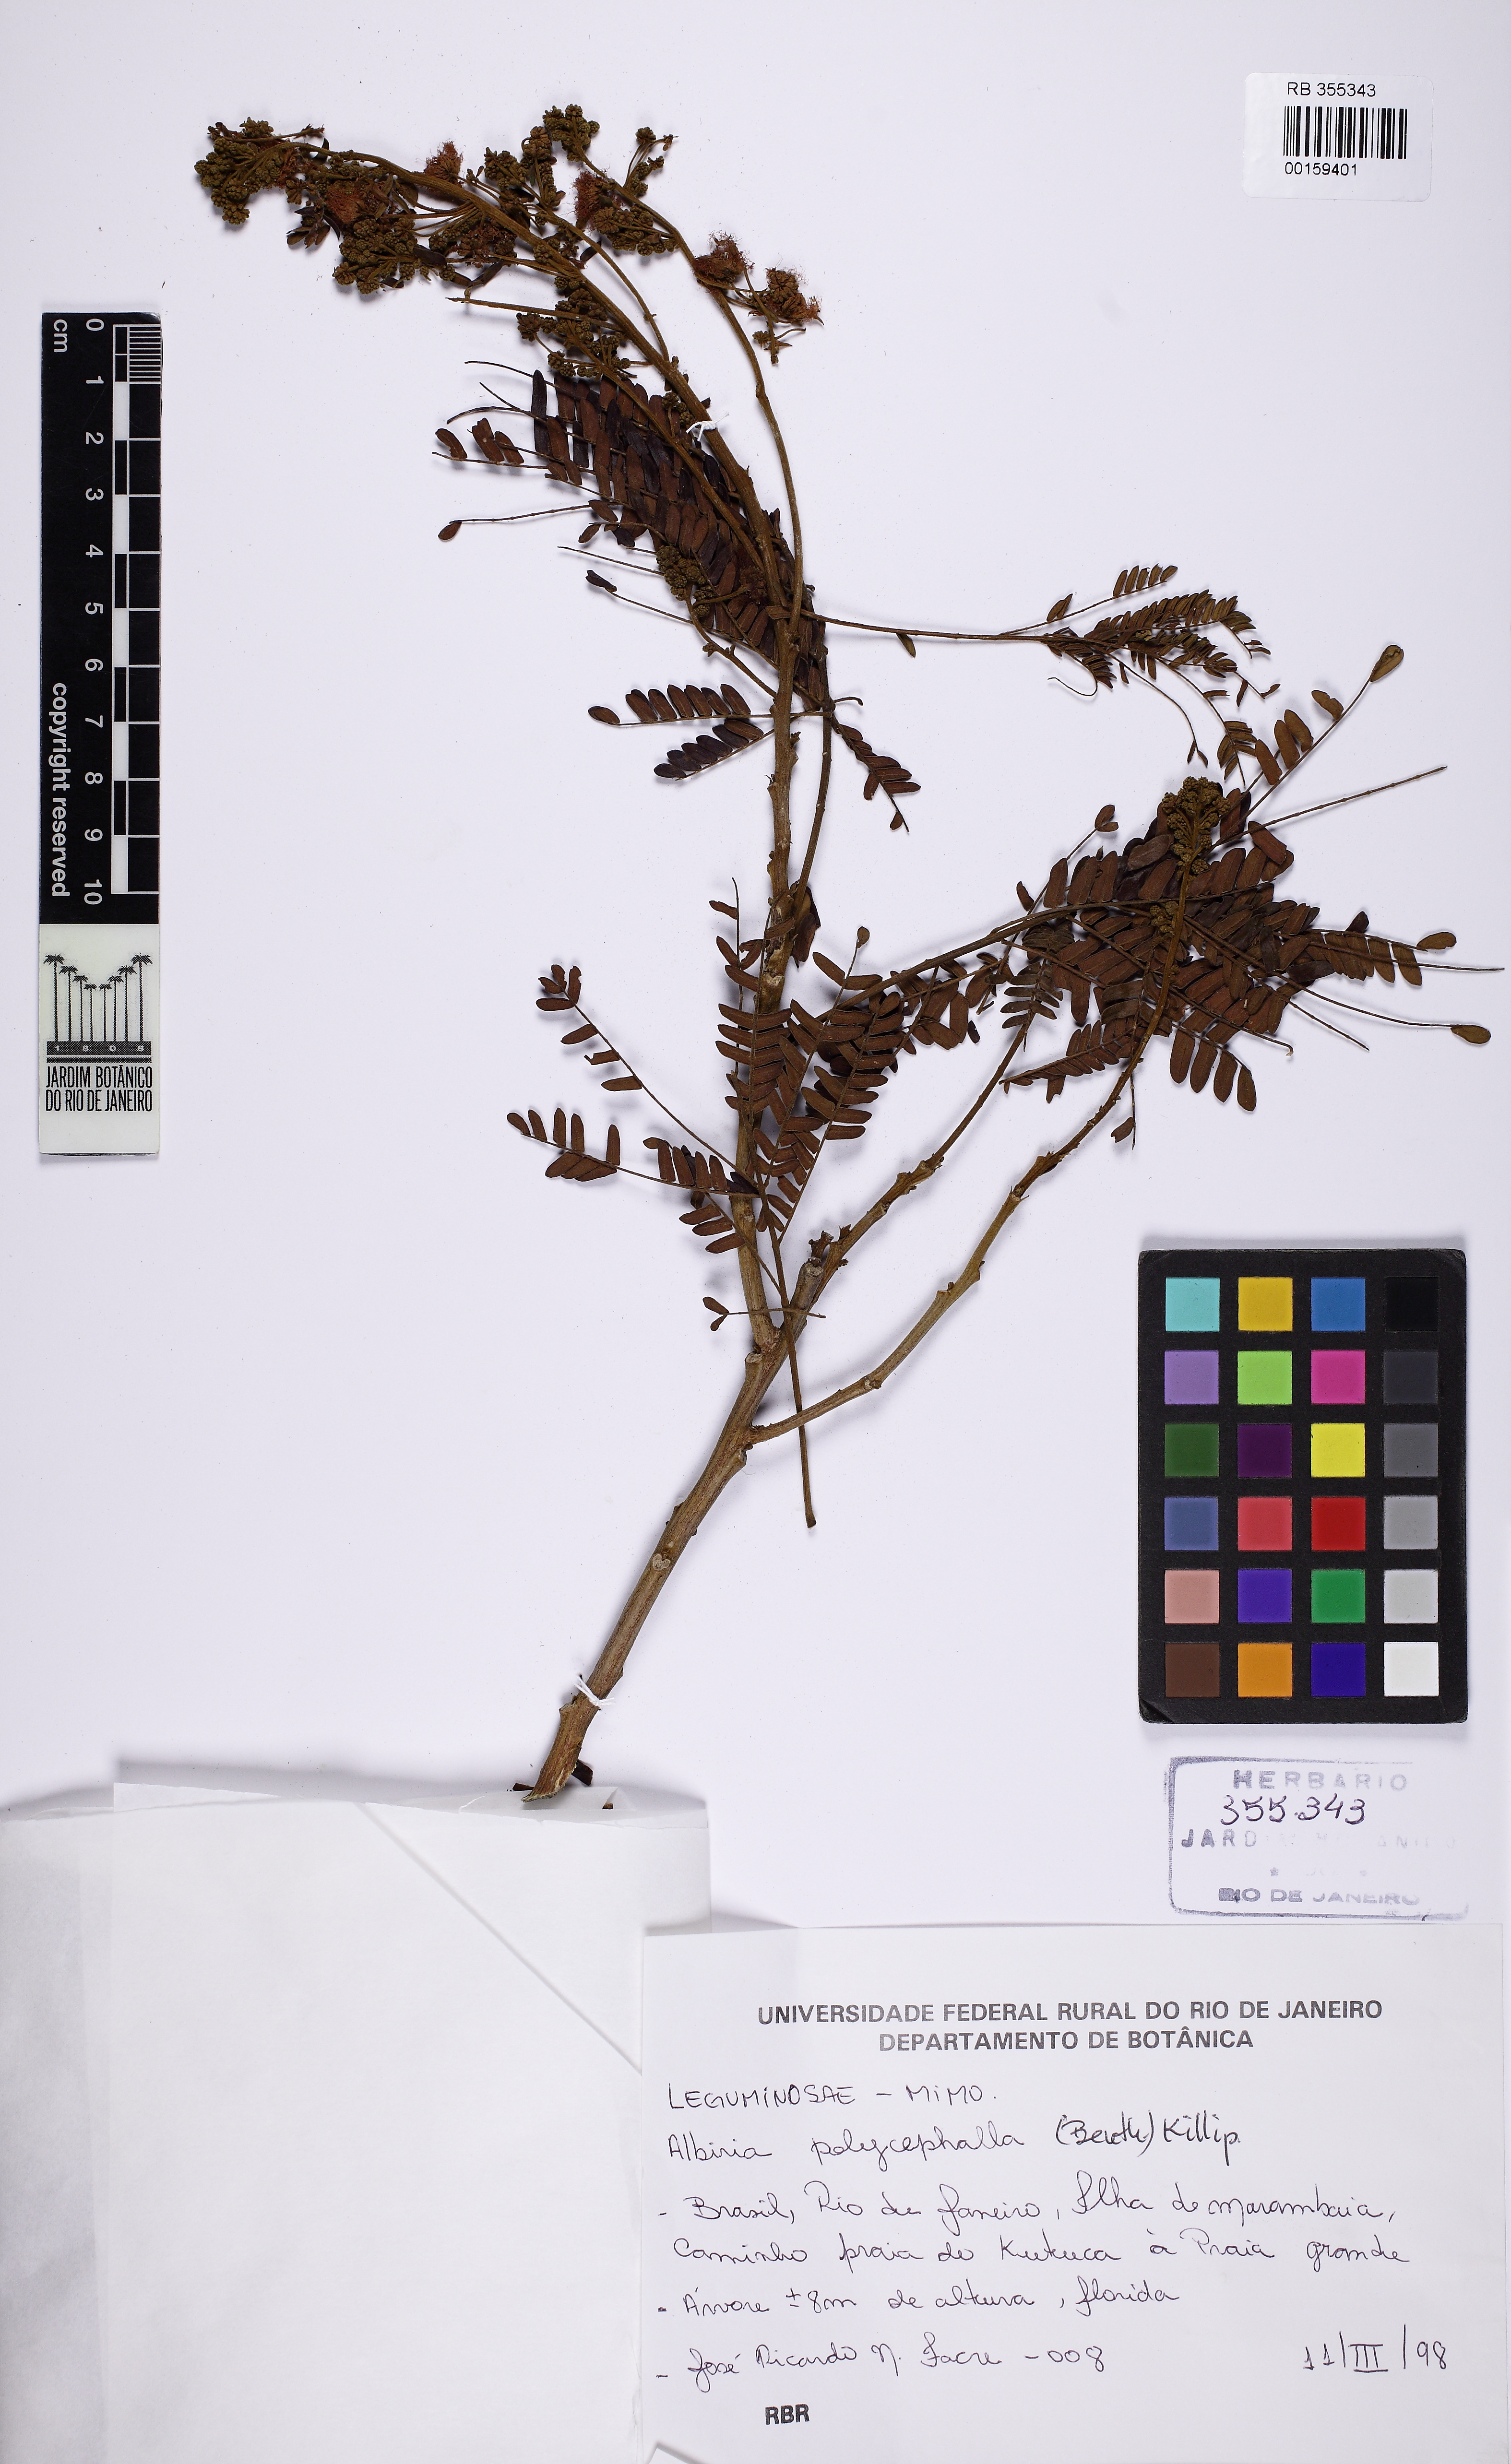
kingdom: Plantae
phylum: Tracheophyta
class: Magnoliopsida
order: Fabales
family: Fabaceae
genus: Albizia
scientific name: Albizia polycephala
